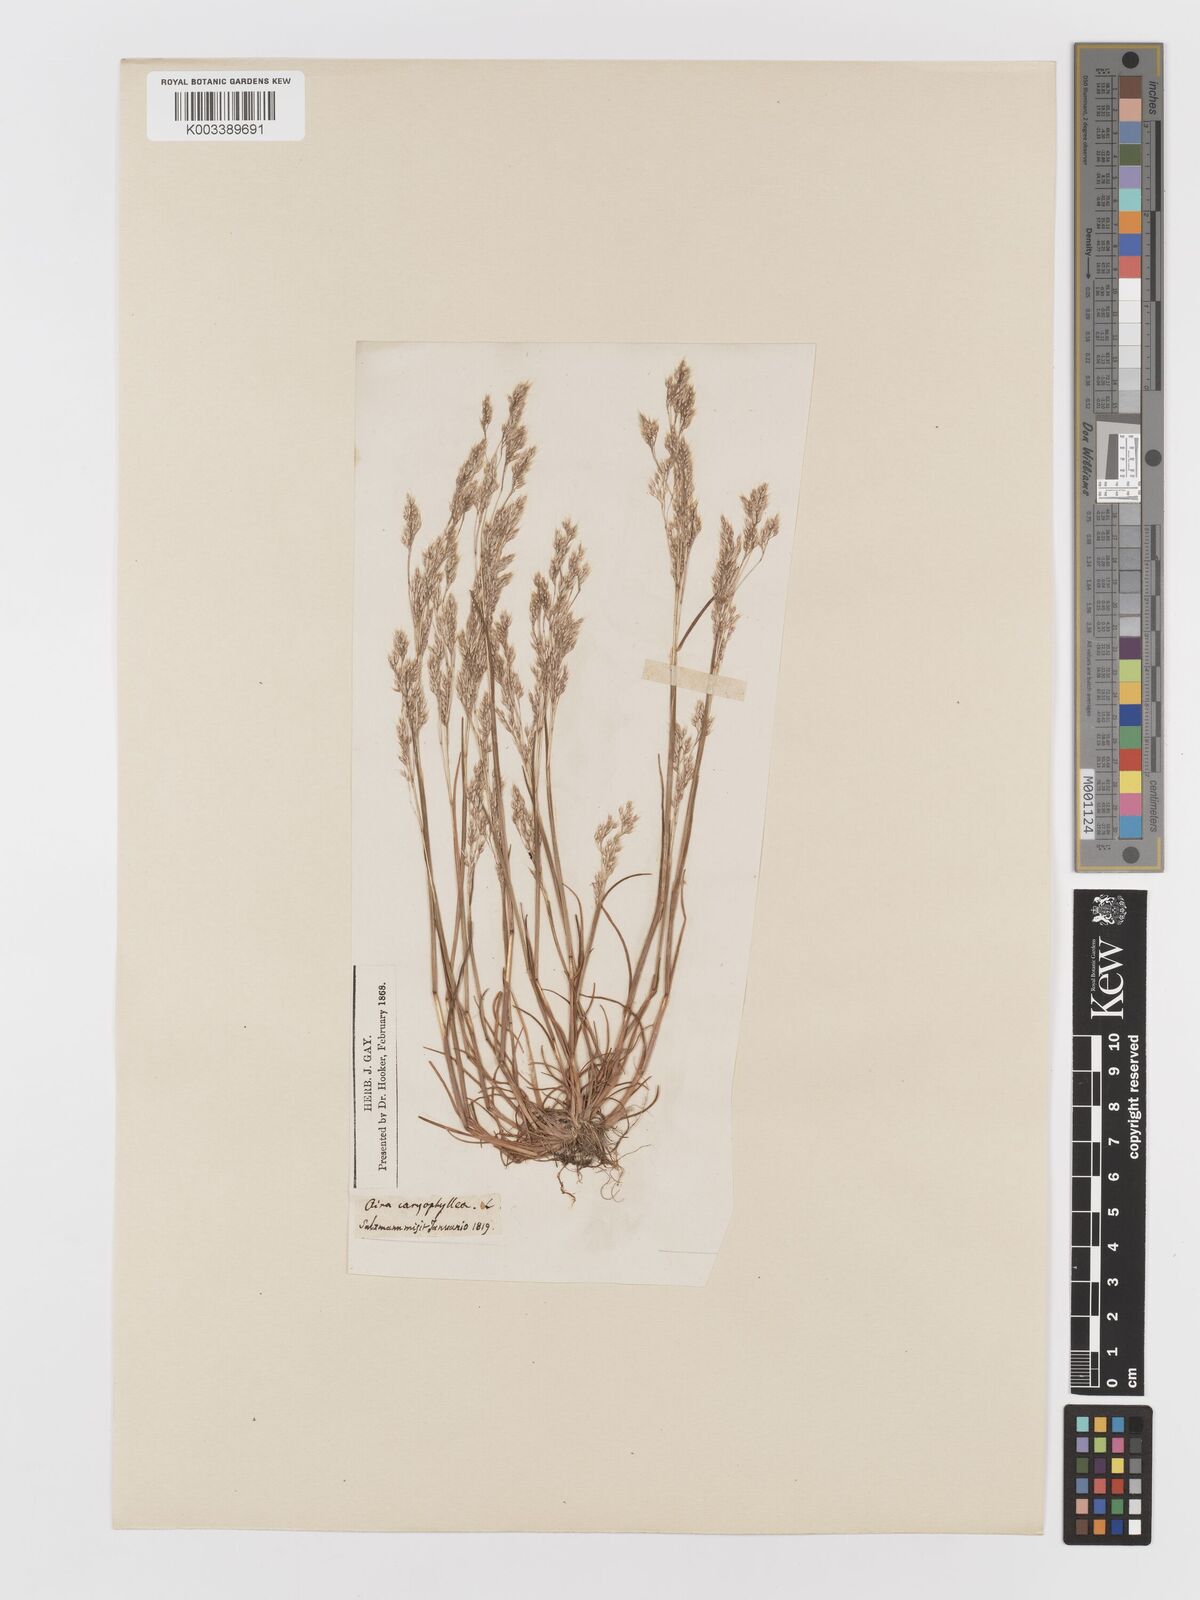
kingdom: Plantae
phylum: Tracheophyta
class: Liliopsida
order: Poales
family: Poaceae
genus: Aira
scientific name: Aira caryophyllea
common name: Silver hairgrass
